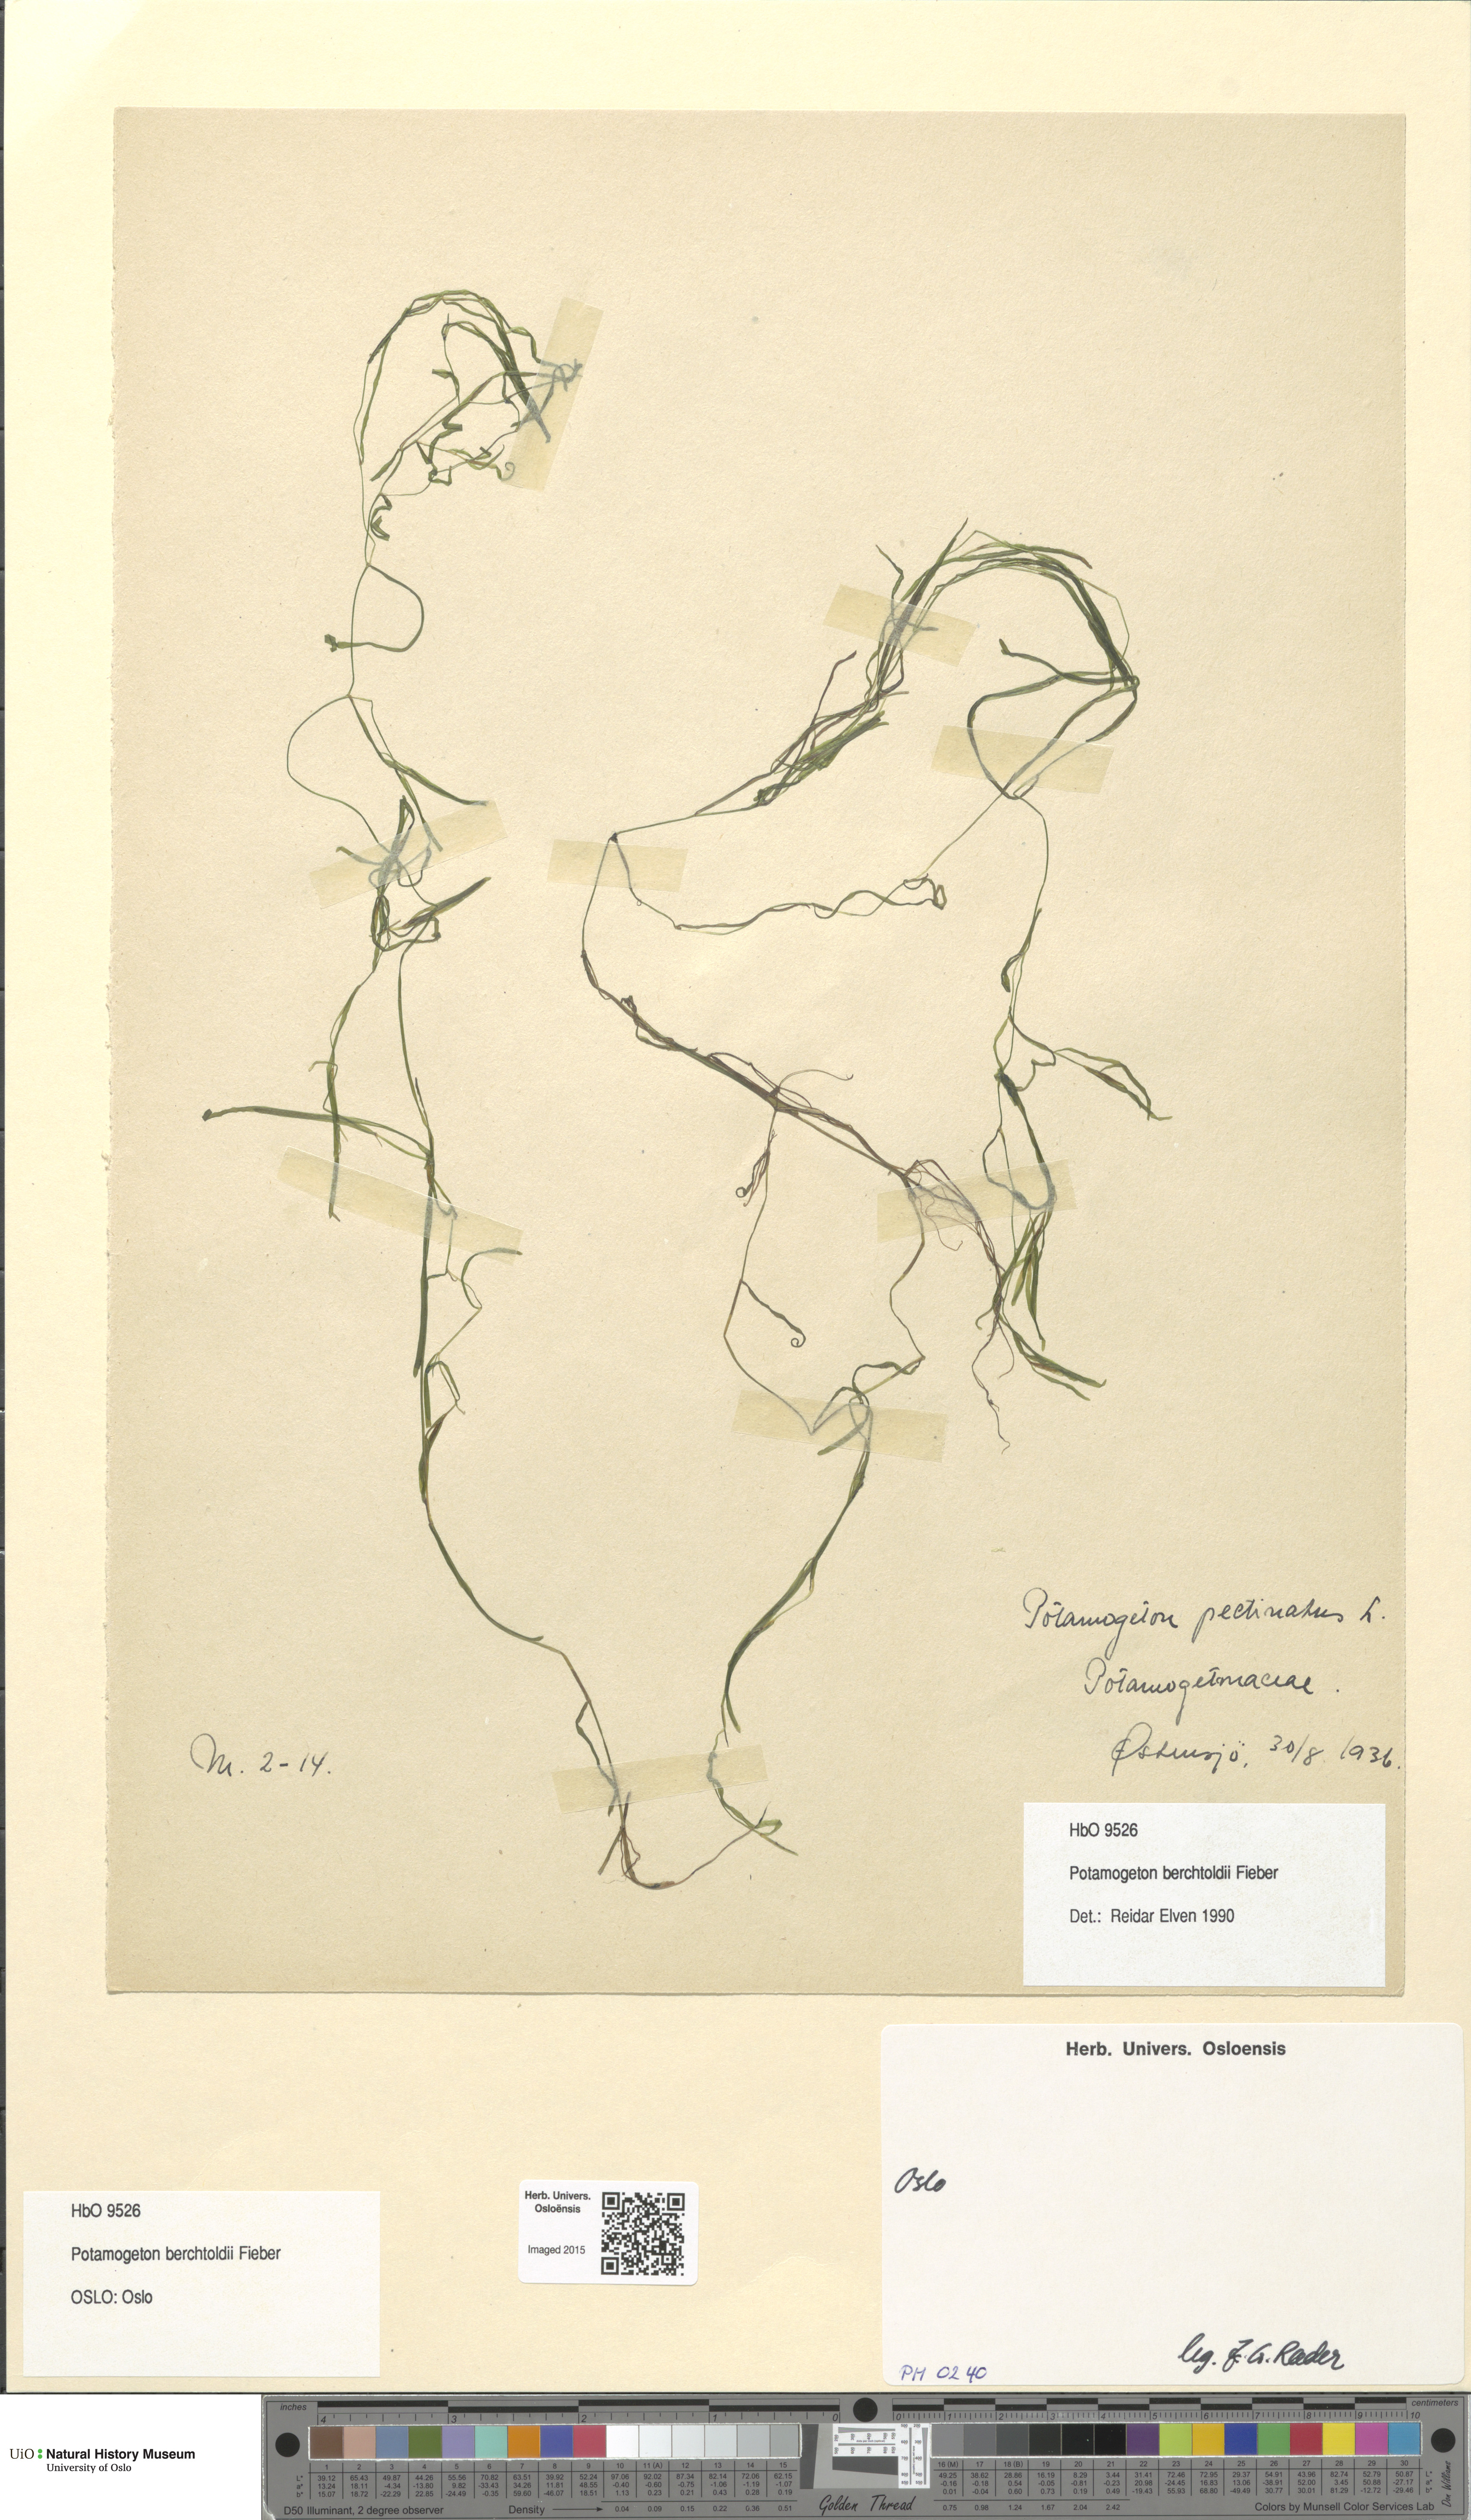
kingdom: Plantae
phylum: Tracheophyta
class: Liliopsida
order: Alismatales
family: Potamogetonaceae
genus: Potamogeton
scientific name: Potamogeton berchtoldii
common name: Small pondweed
